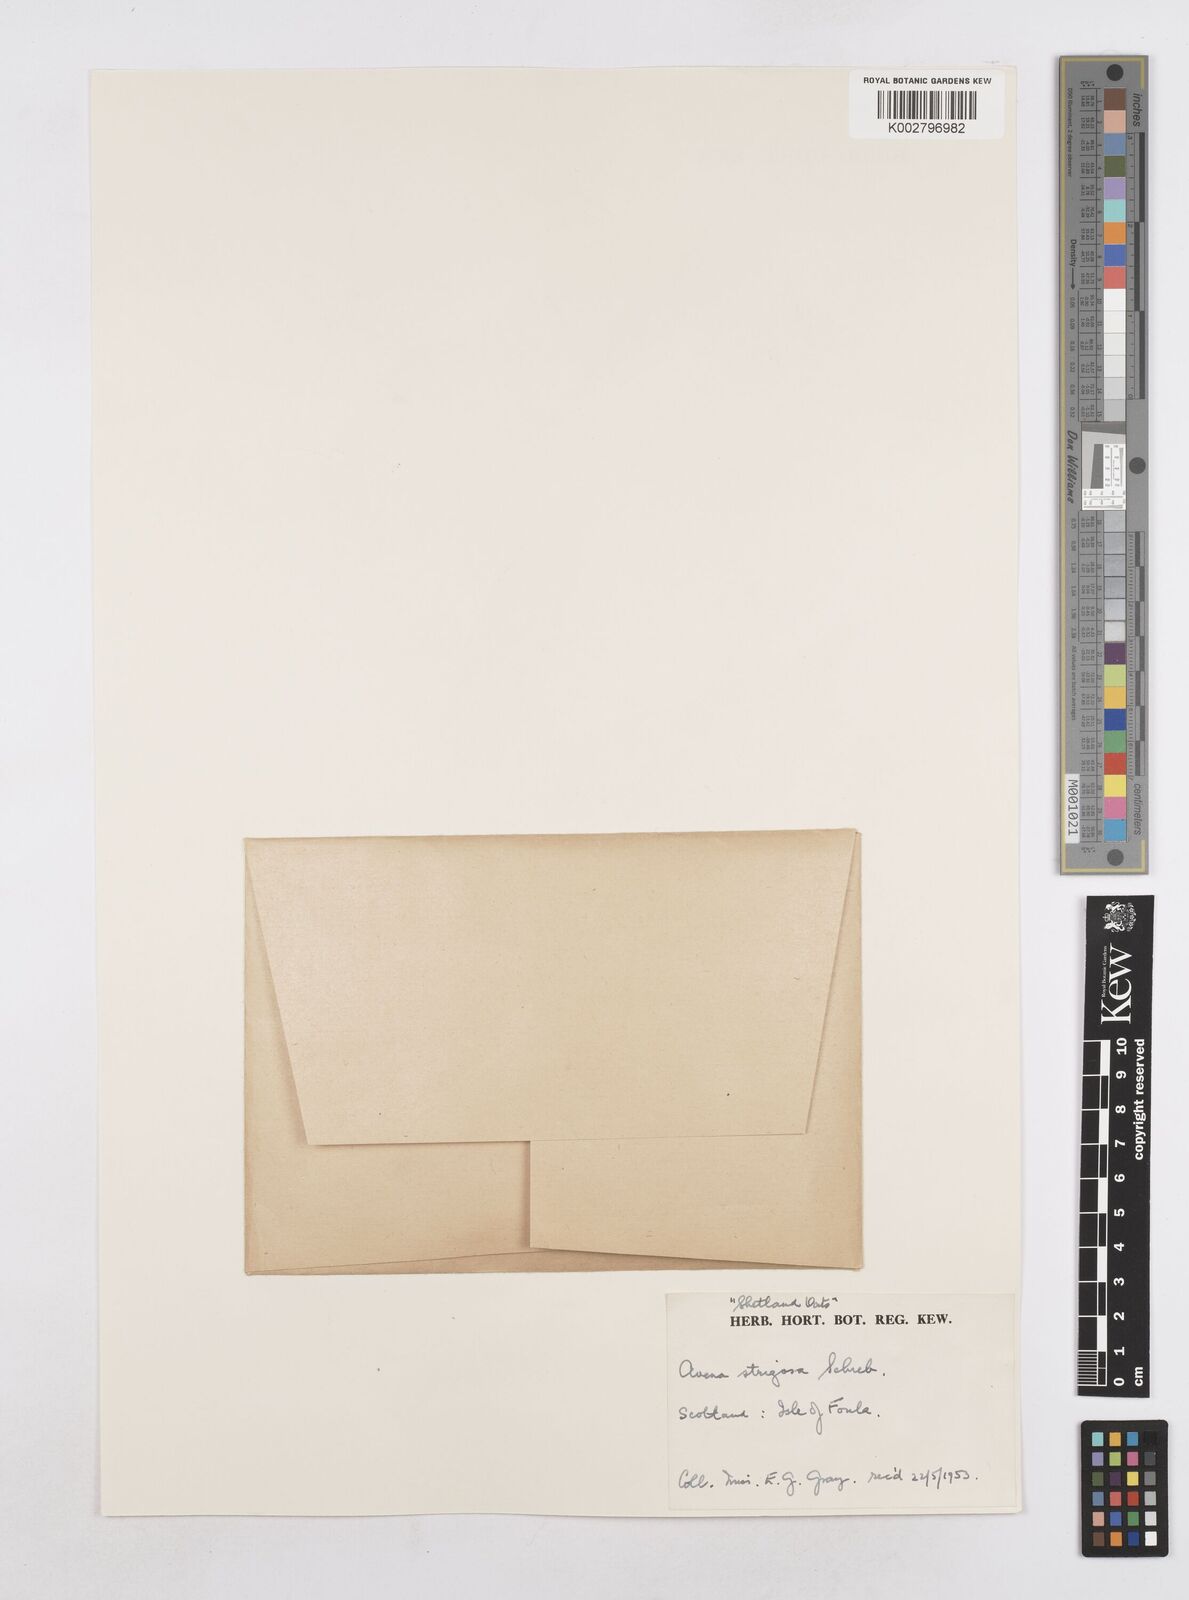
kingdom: Plantae
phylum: Tracheophyta
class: Liliopsida
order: Poales
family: Poaceae
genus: Avena
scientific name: Avena strigosa
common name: Bristle oat
